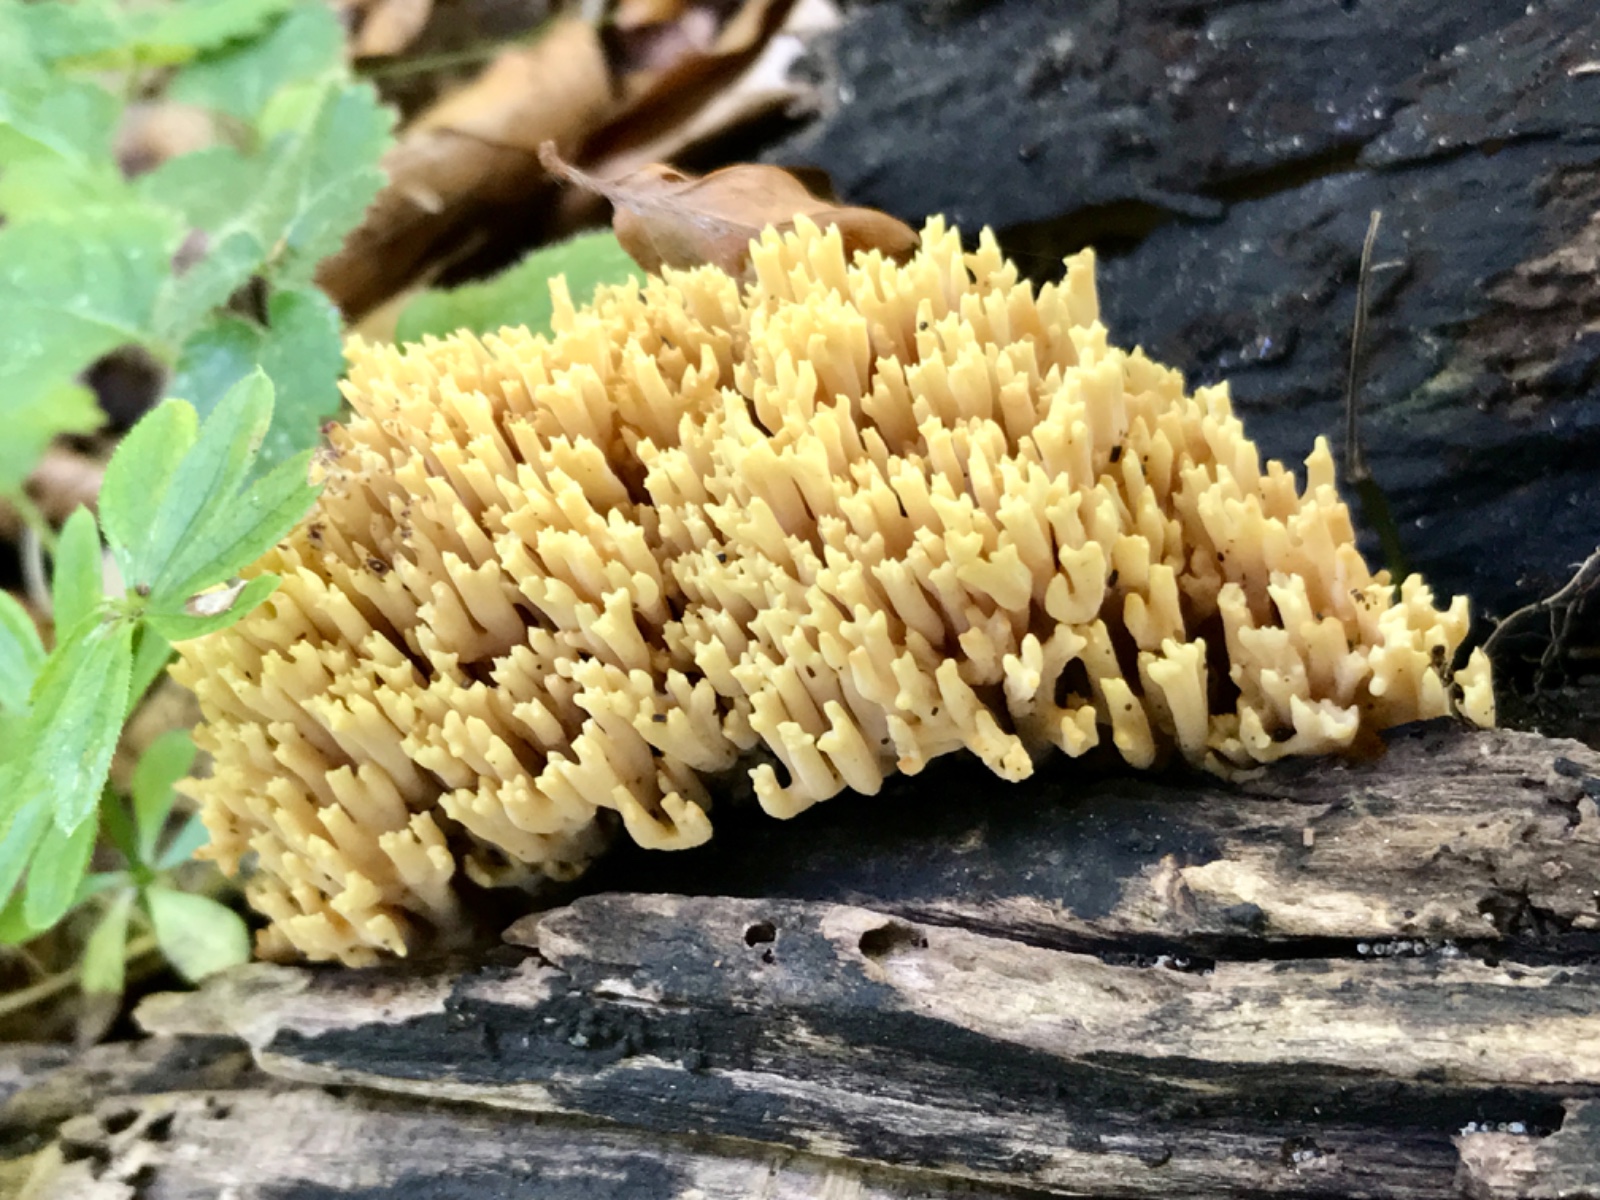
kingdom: Fungi
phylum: Basidiomycota
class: Agaricomycetes
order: Gomphales
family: Gomphaceae
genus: Ramaria
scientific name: Ramaria stricta
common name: rank koralsvamp
